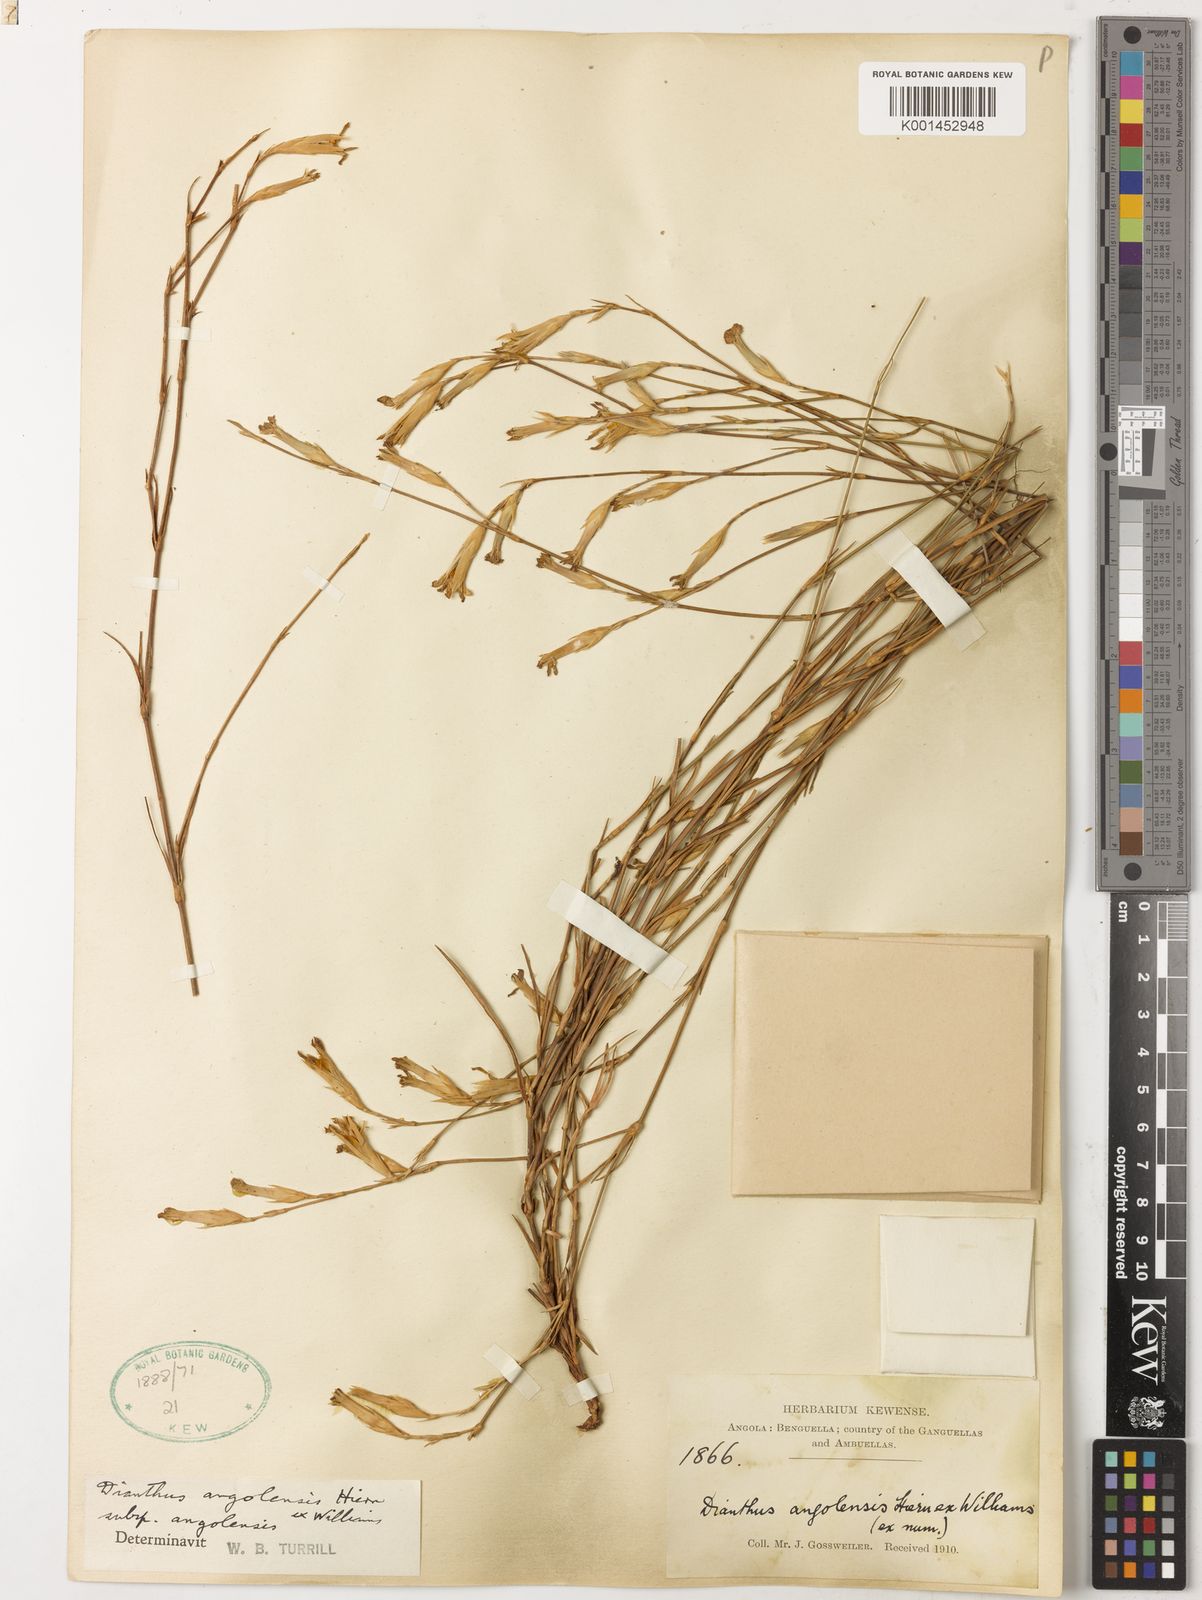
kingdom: Plantae
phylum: Tracheophyta
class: Magnoliopsida
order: Caryophyllales
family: Caryophyllaceae
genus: Dianthus
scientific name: Dianthus angolensis
